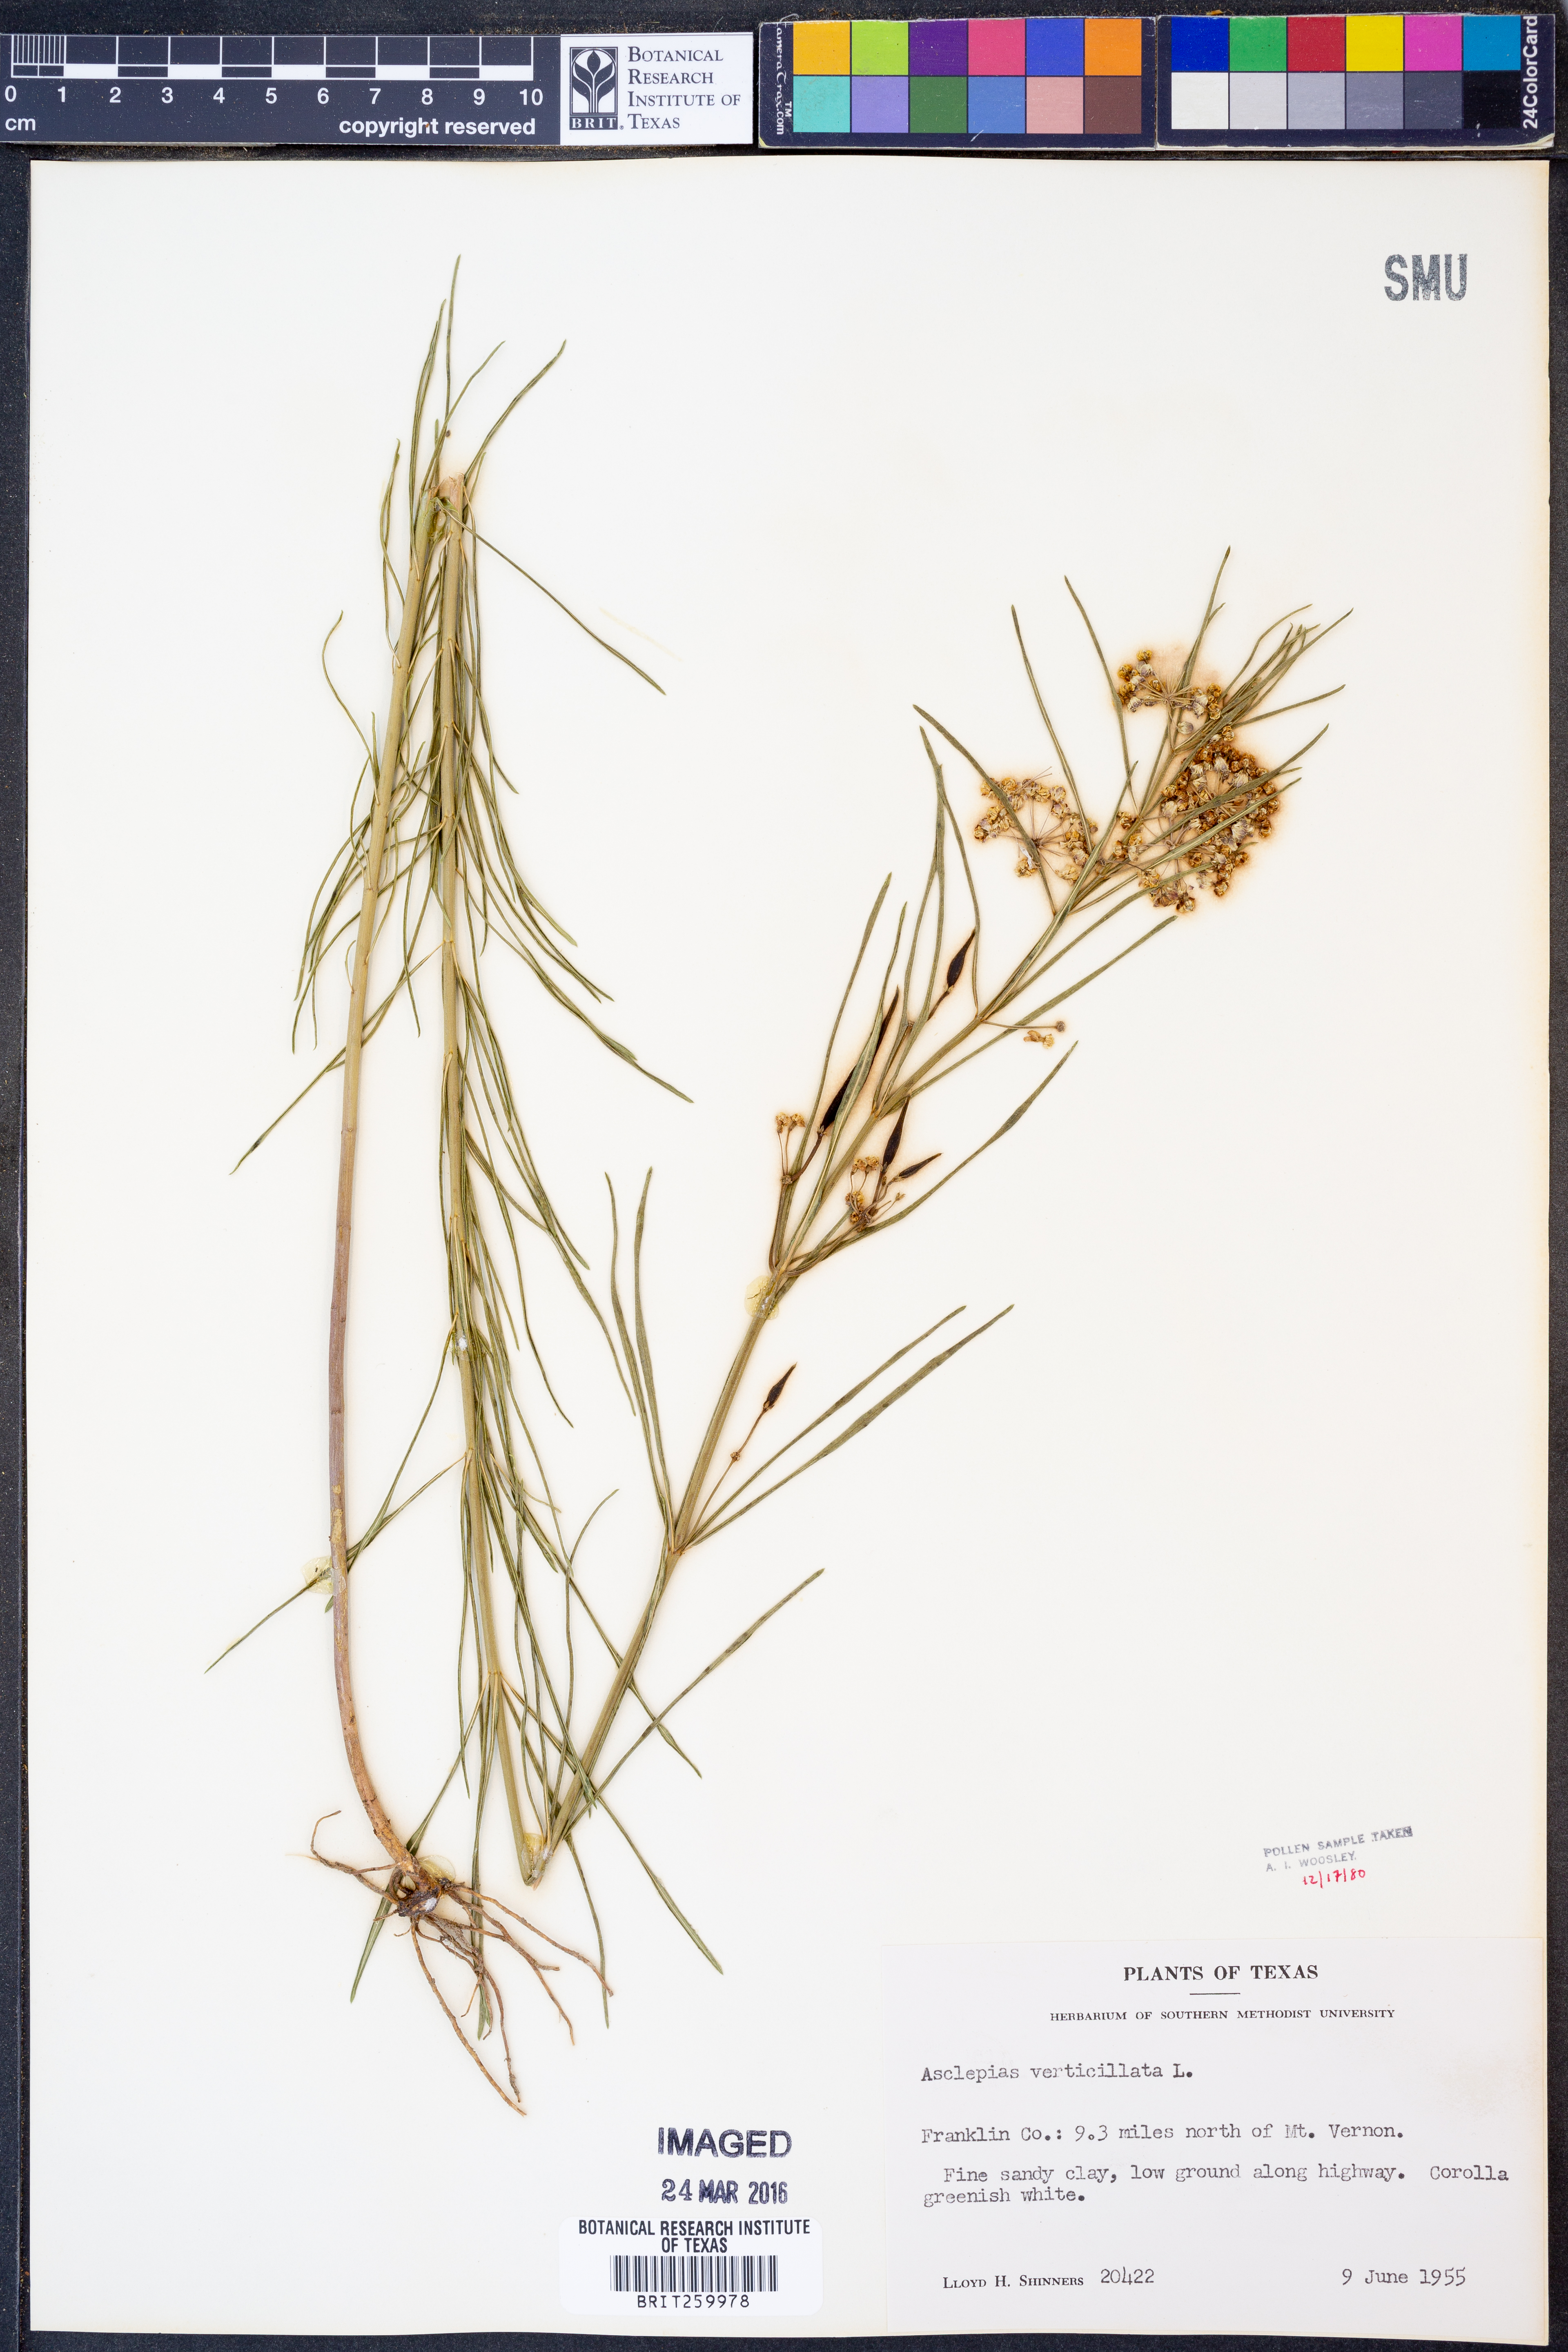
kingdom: Plantae
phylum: Tracheophyta
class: Magnoliopsida
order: Gentianales
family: Apocynaceae
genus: Asclepias
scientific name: Asclepias verticillata
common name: Eastern whorled milkweed
